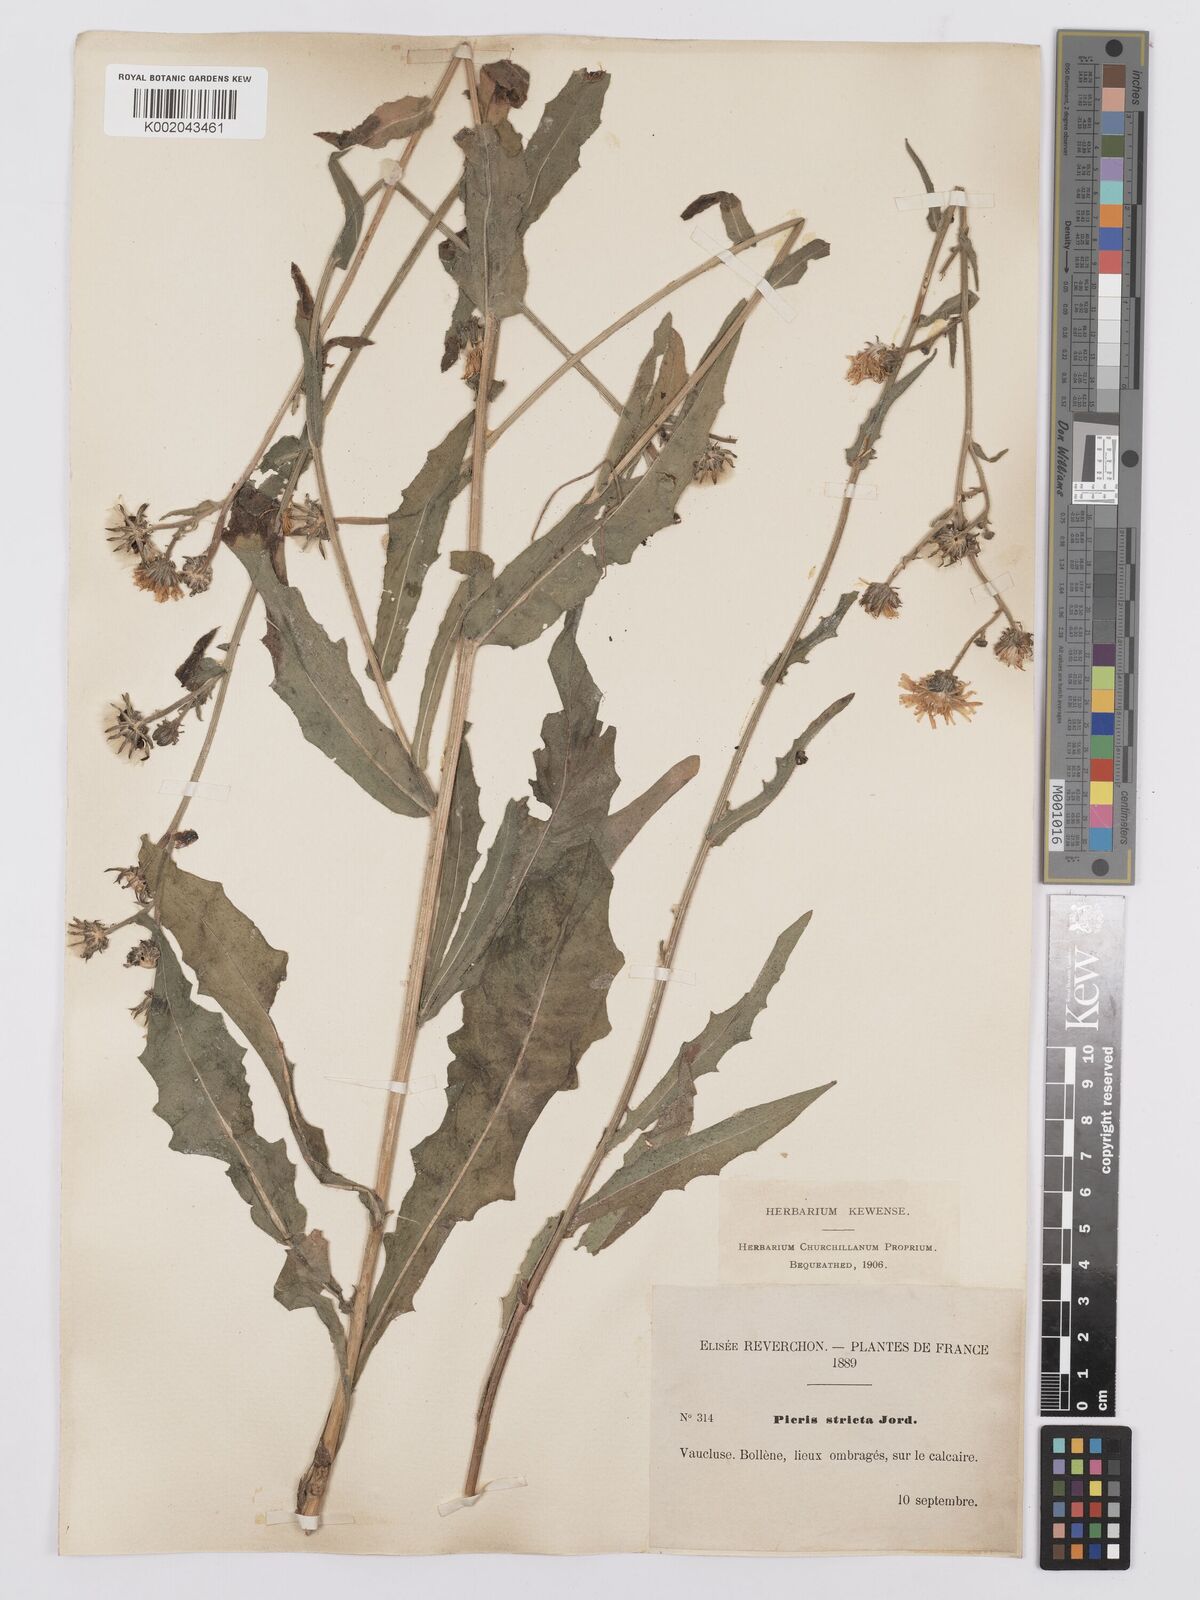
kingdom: Plantae
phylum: Tracheophyta
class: Magnoliopsida
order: Asterales
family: Asteraceae
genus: Picris
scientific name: Picris hieracioides
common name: Hawkweed oxtongue
